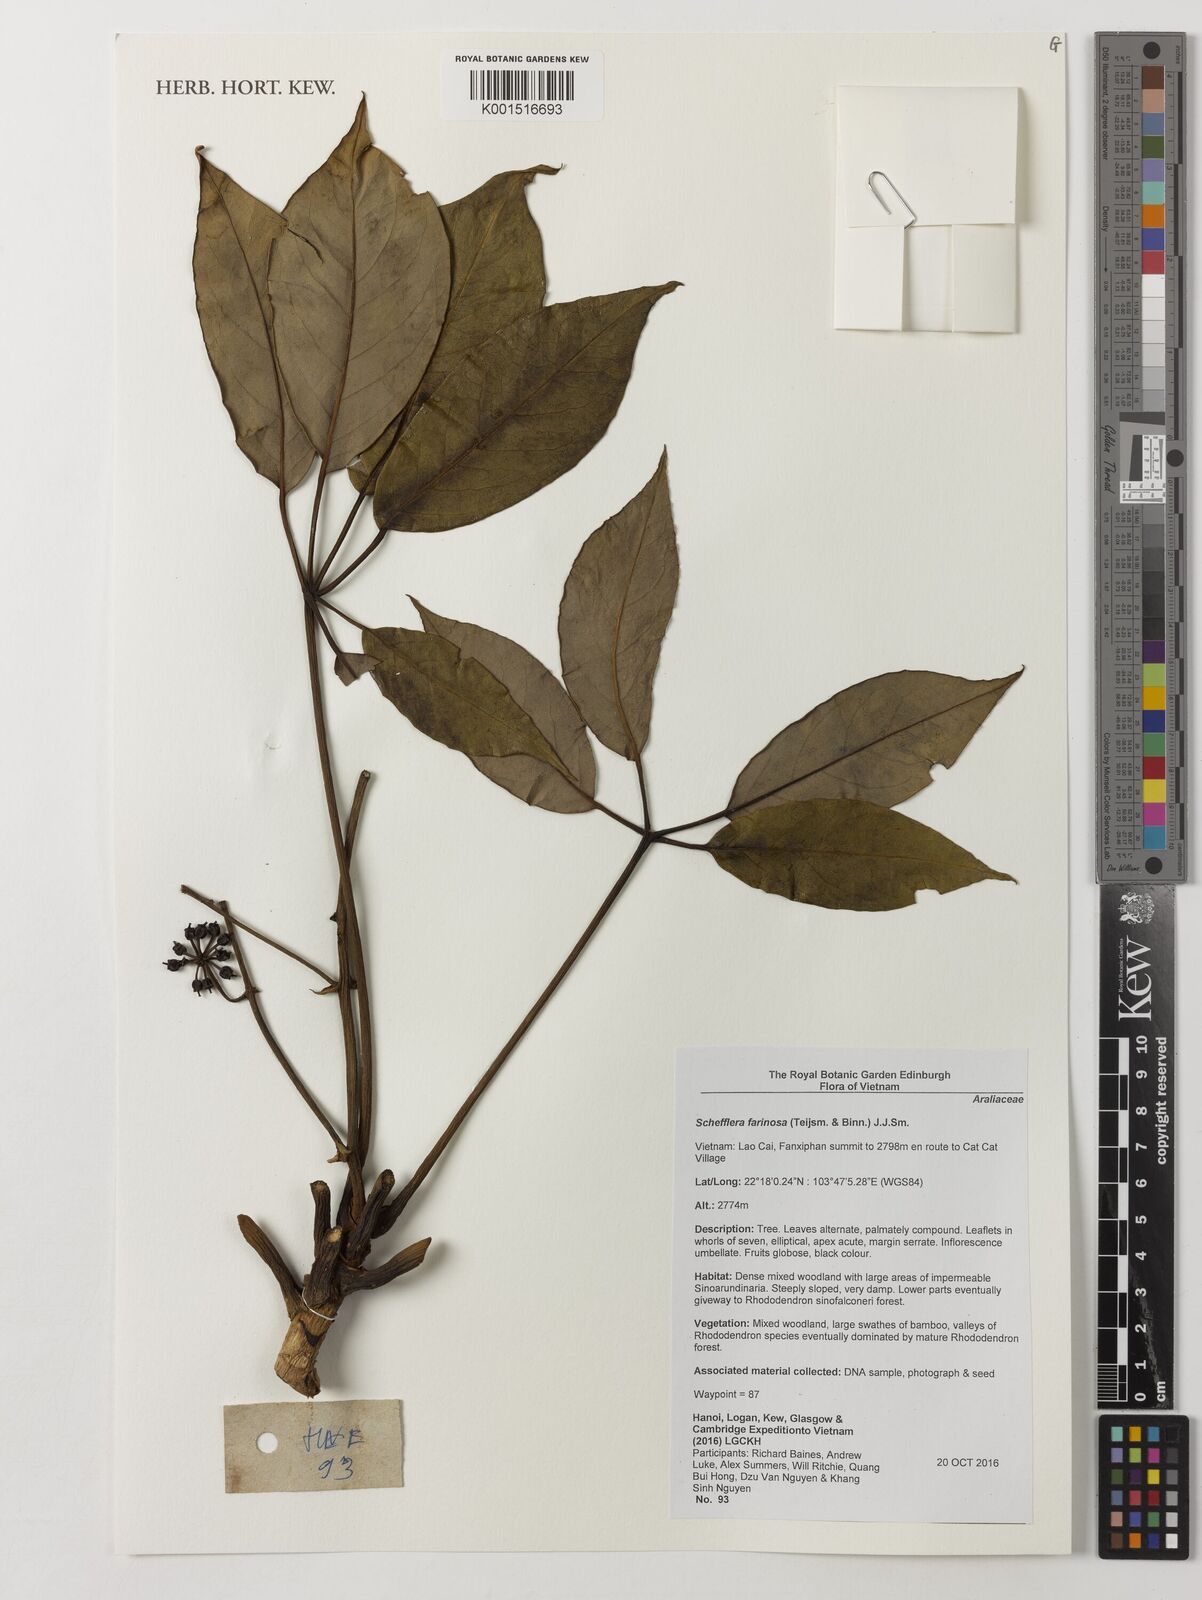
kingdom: Plantae
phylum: Tracheophyta
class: Magnoliopsida
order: Apiales
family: Araliaceae
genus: Schefflera
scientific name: Schefflera
